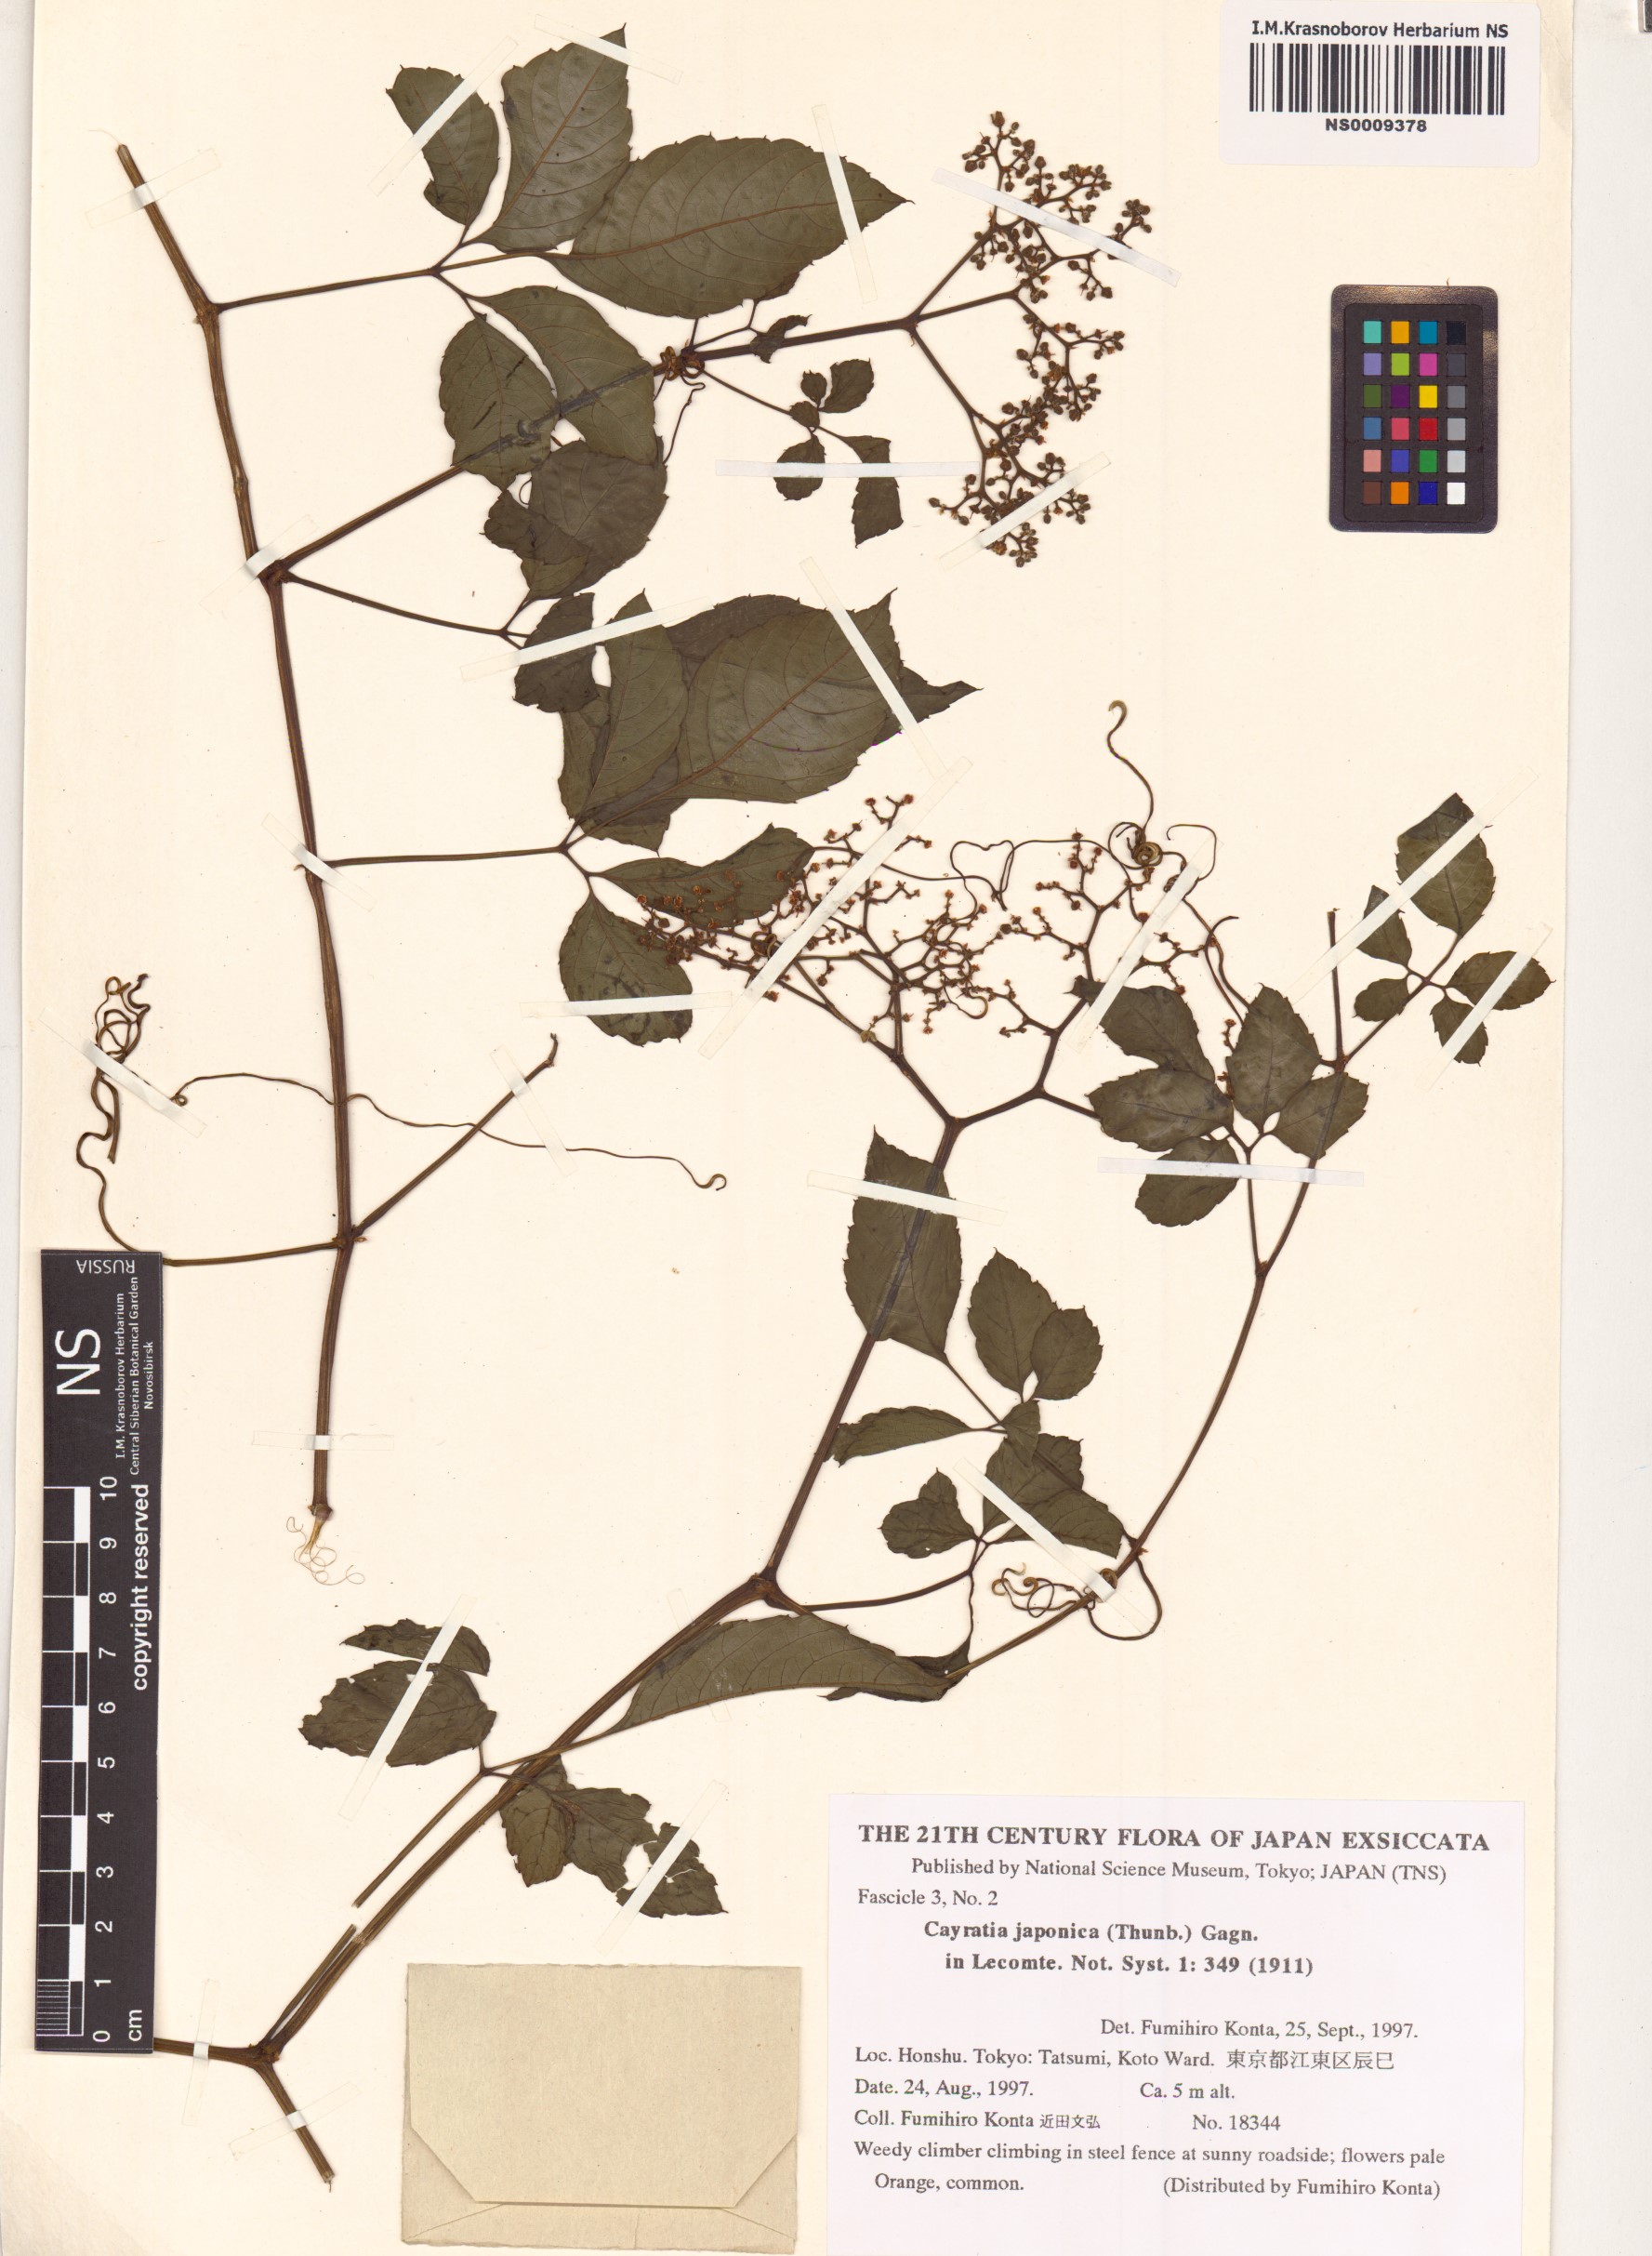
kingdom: Plantae
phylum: Tracheophyta
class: Magnoliopsida
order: Vitales
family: Vitaceae
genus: Causonis
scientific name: Causonis japonica
